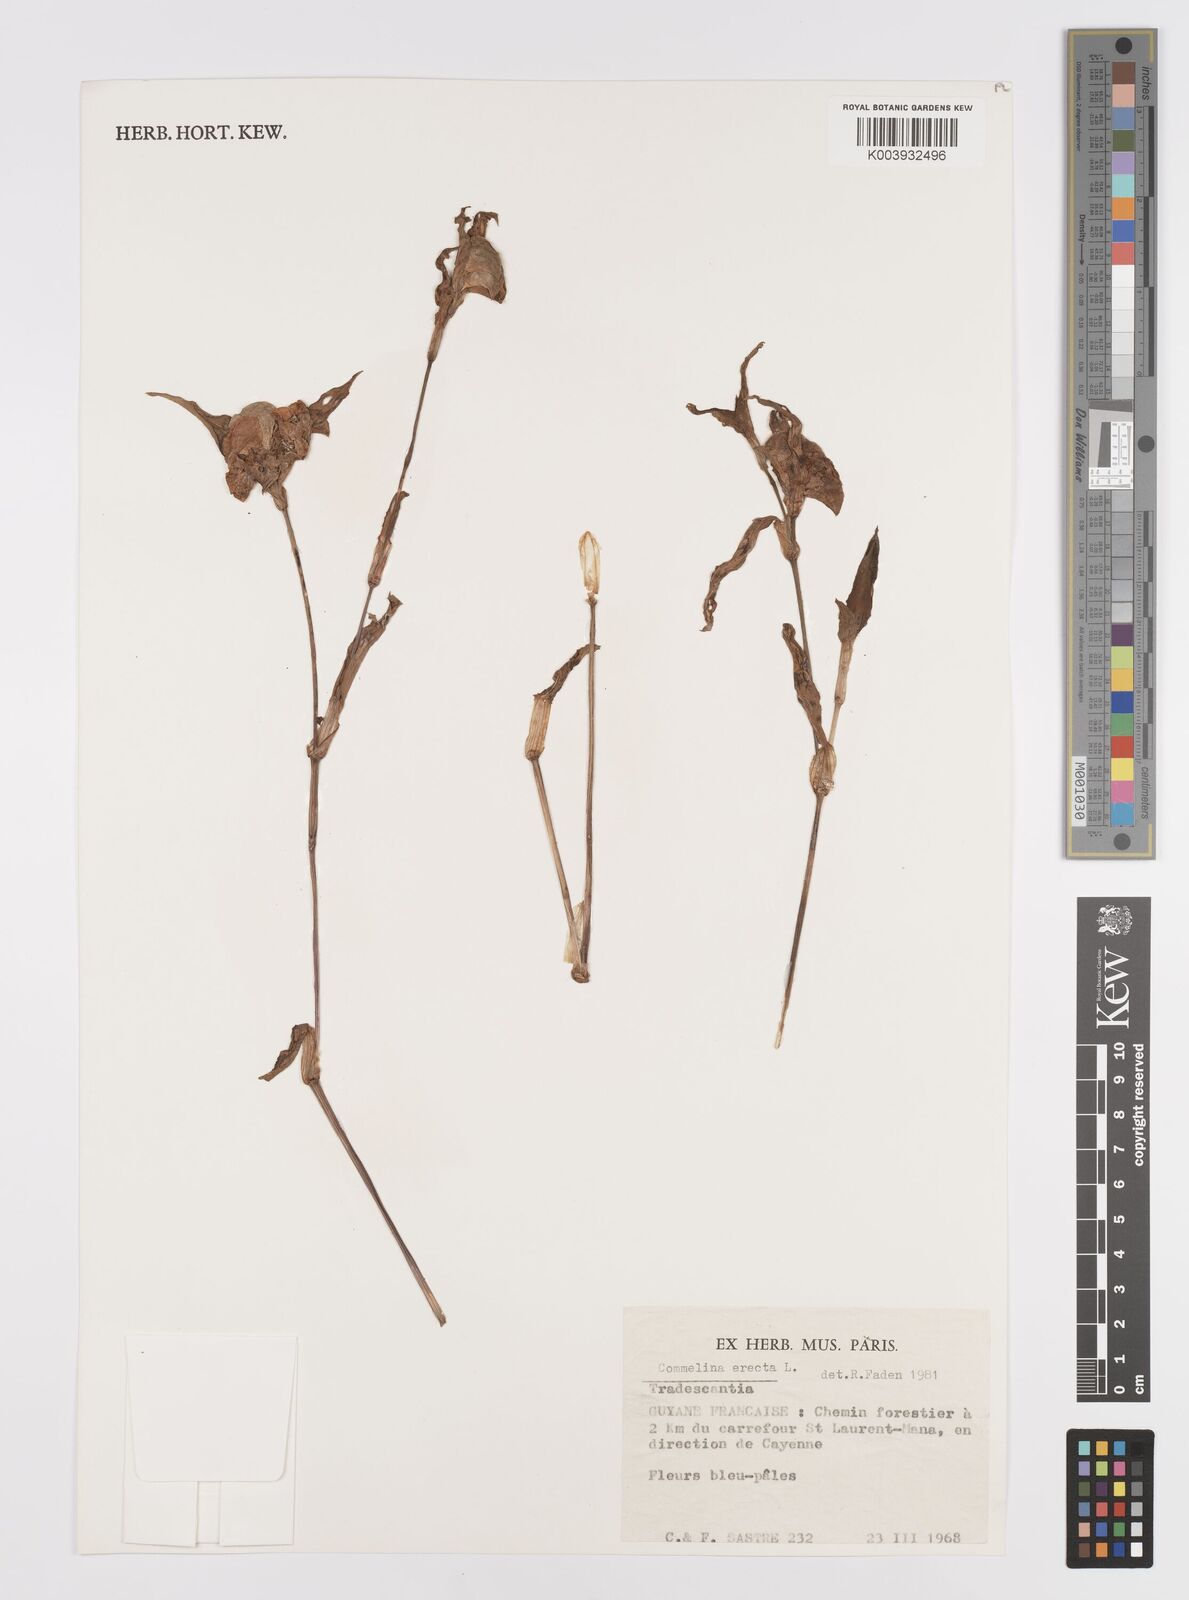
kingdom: Plantae
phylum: Tracheophyta
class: Liliopsida
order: Commelinales
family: Commelinaceae
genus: Commelina
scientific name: Commelina erecta
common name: Blousel blommetjie
